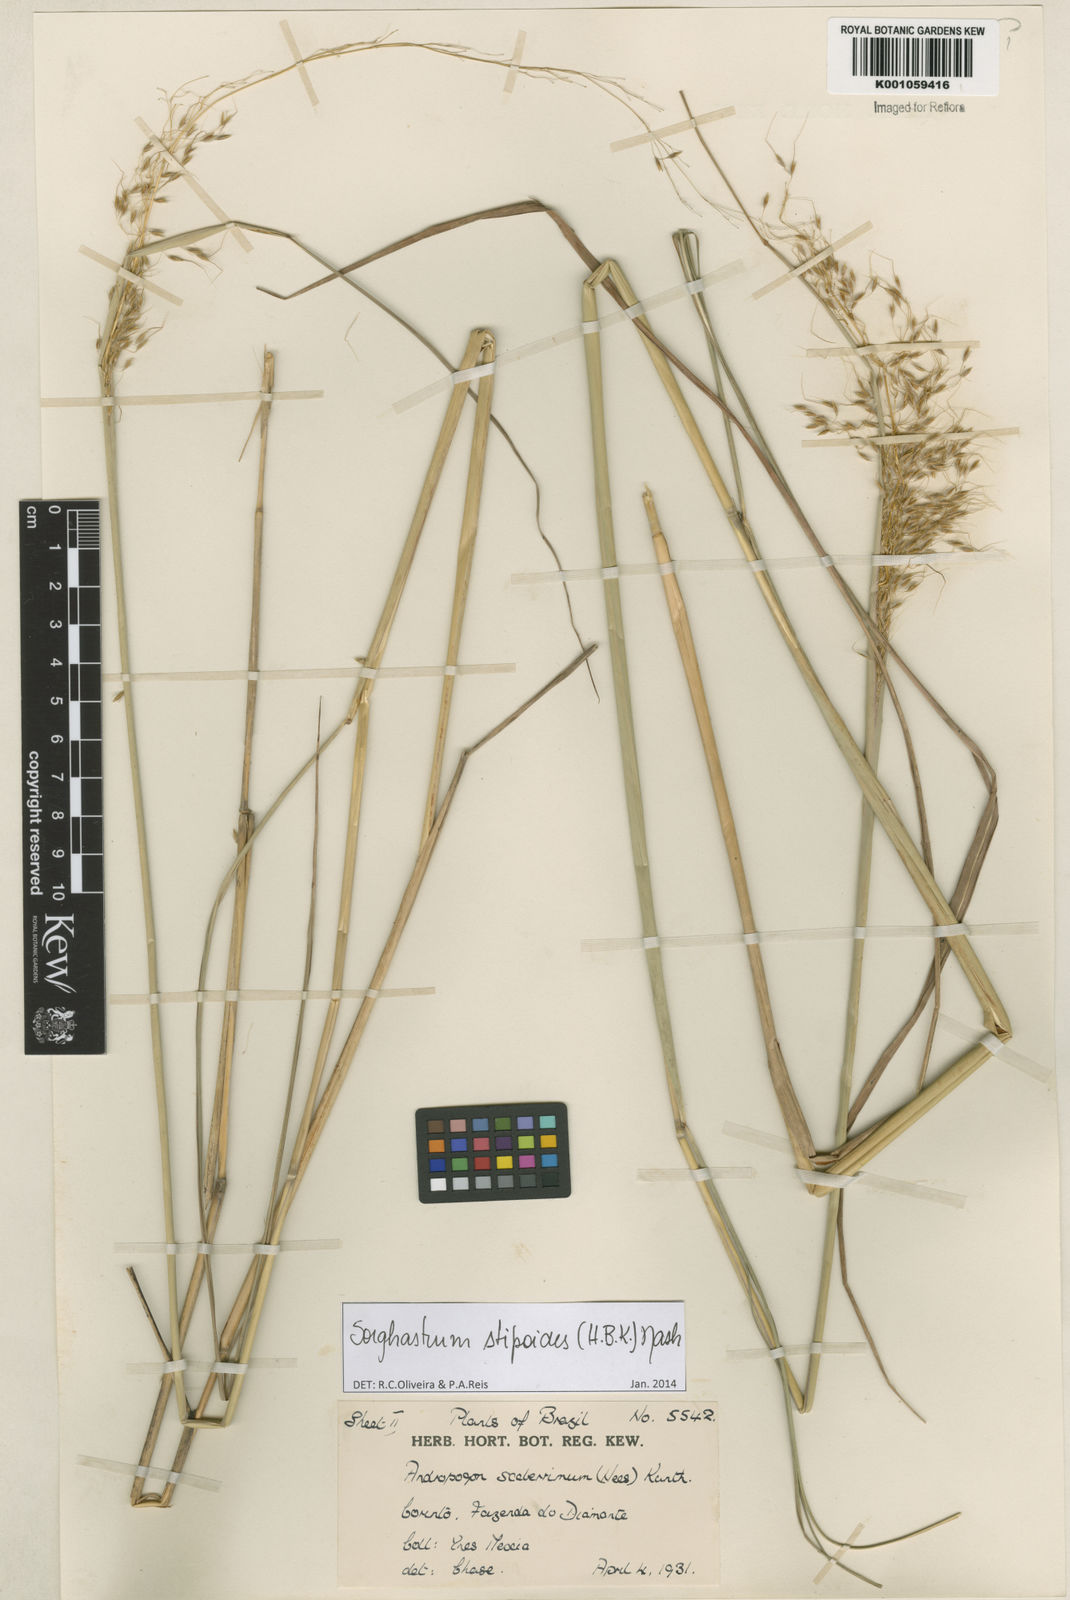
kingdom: Plantae
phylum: Tracheophyta
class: Liliopsida
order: Poales
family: Poaceae
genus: Sorghastrum
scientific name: Sorghastrum stipoides
